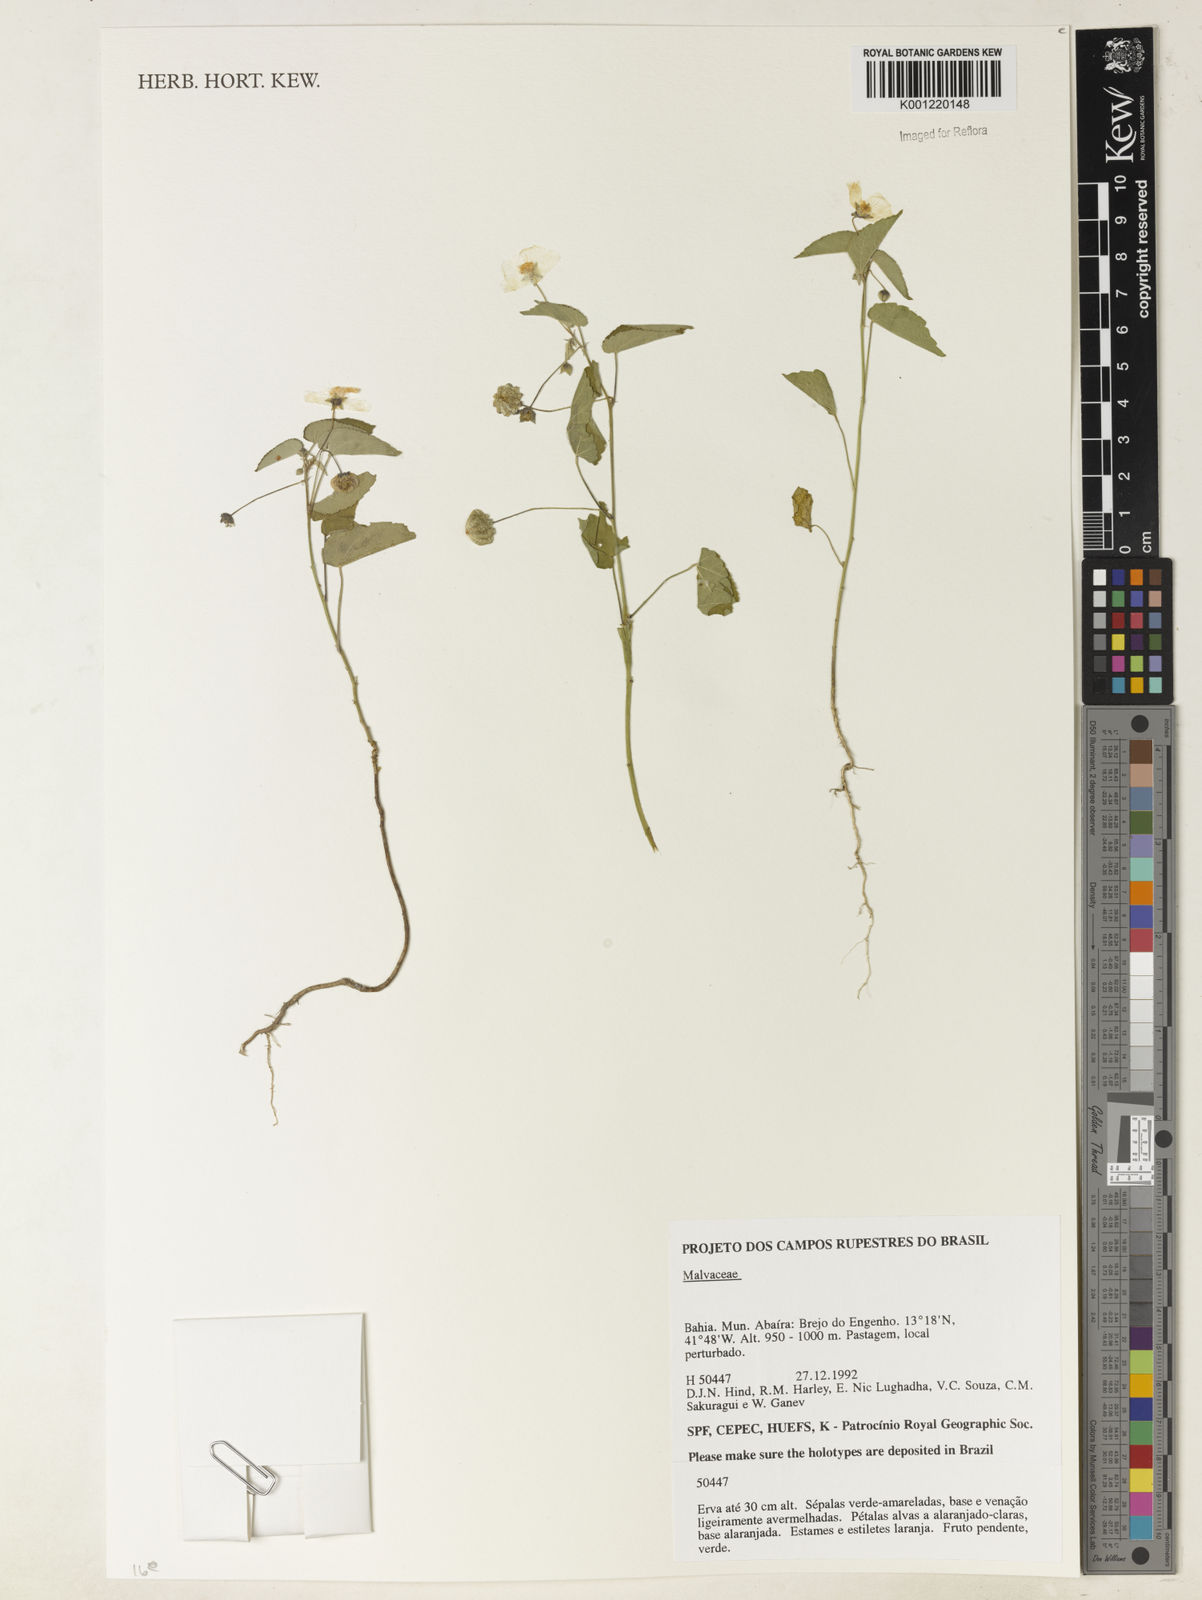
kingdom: Plantae
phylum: Tracheophyta
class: Magnoliopsida
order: Malvales
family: Malvaceae
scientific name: Malvaceae
